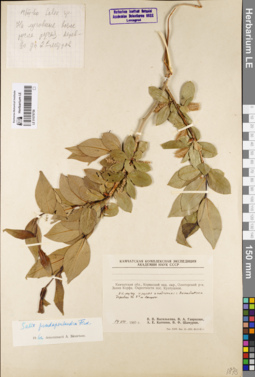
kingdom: Plantae
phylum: Tracheophyta
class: Magnoliopsida
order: Malpighiales
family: Salicaceae
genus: Salix
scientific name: Salix pseudopentandra
